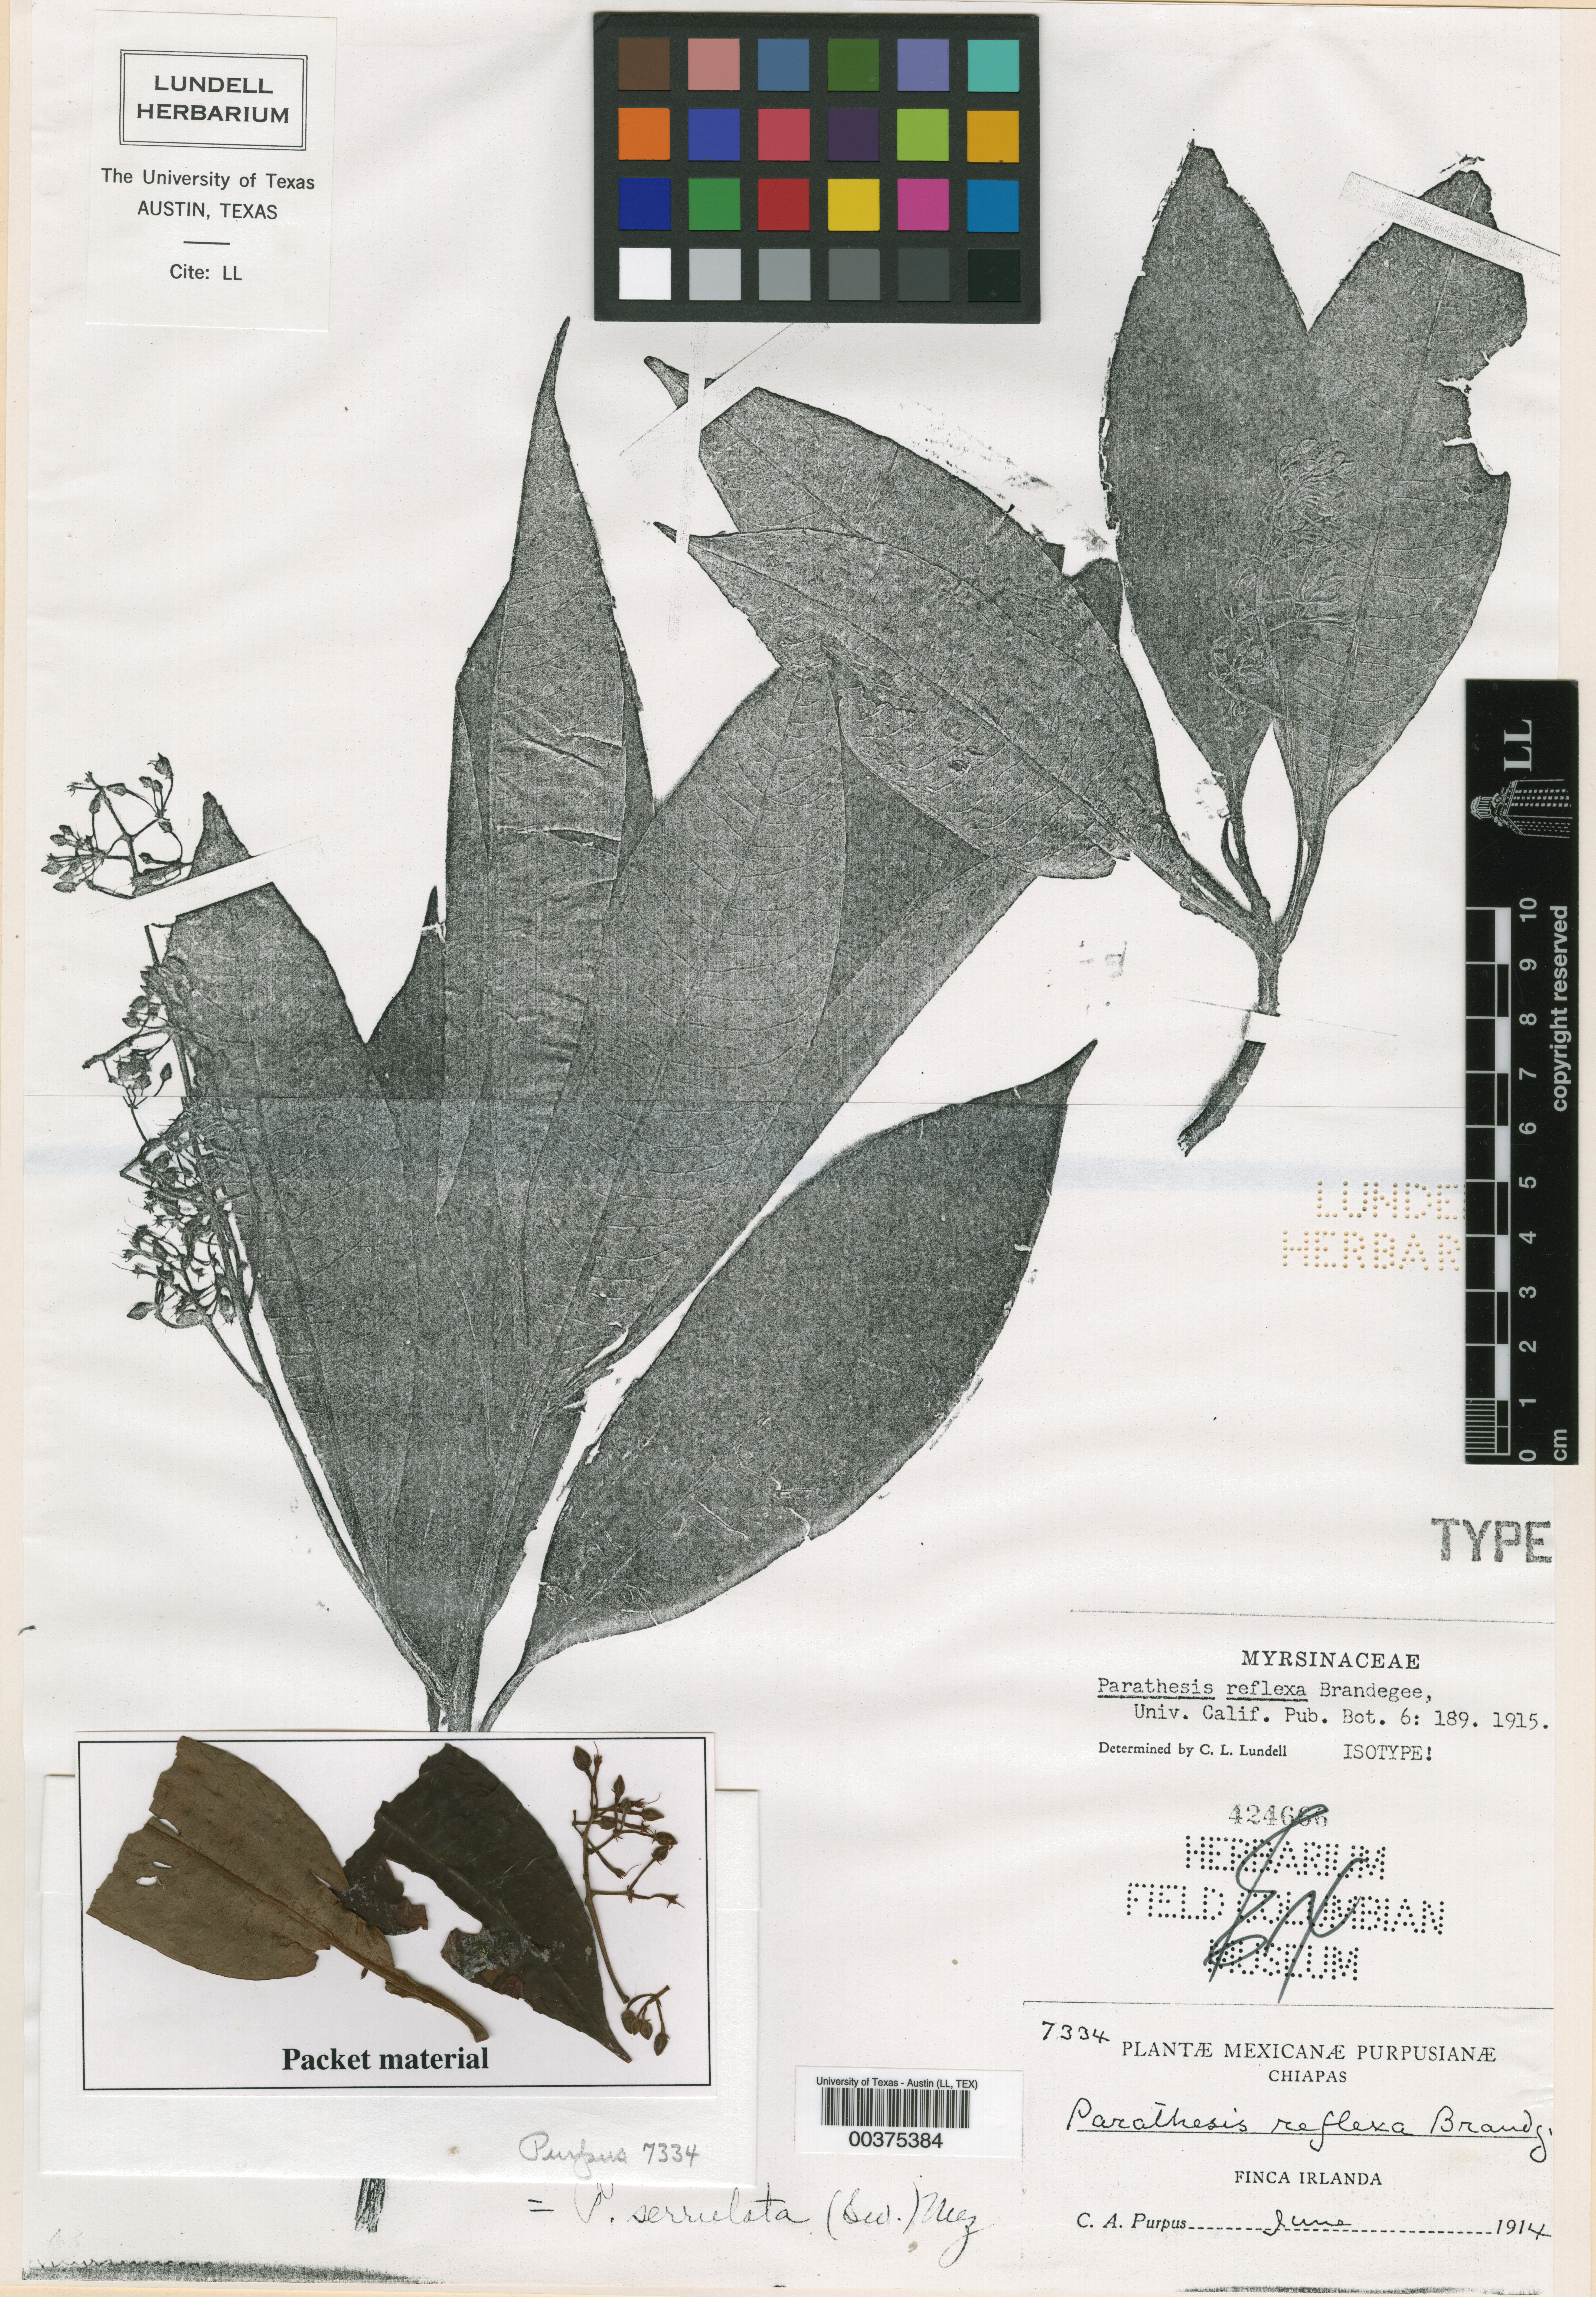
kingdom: Plantae
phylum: Tracheophyta
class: Magnoliopsida
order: Ericales
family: Primulaceae
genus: Parathesis
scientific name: Parathesis reflexa
